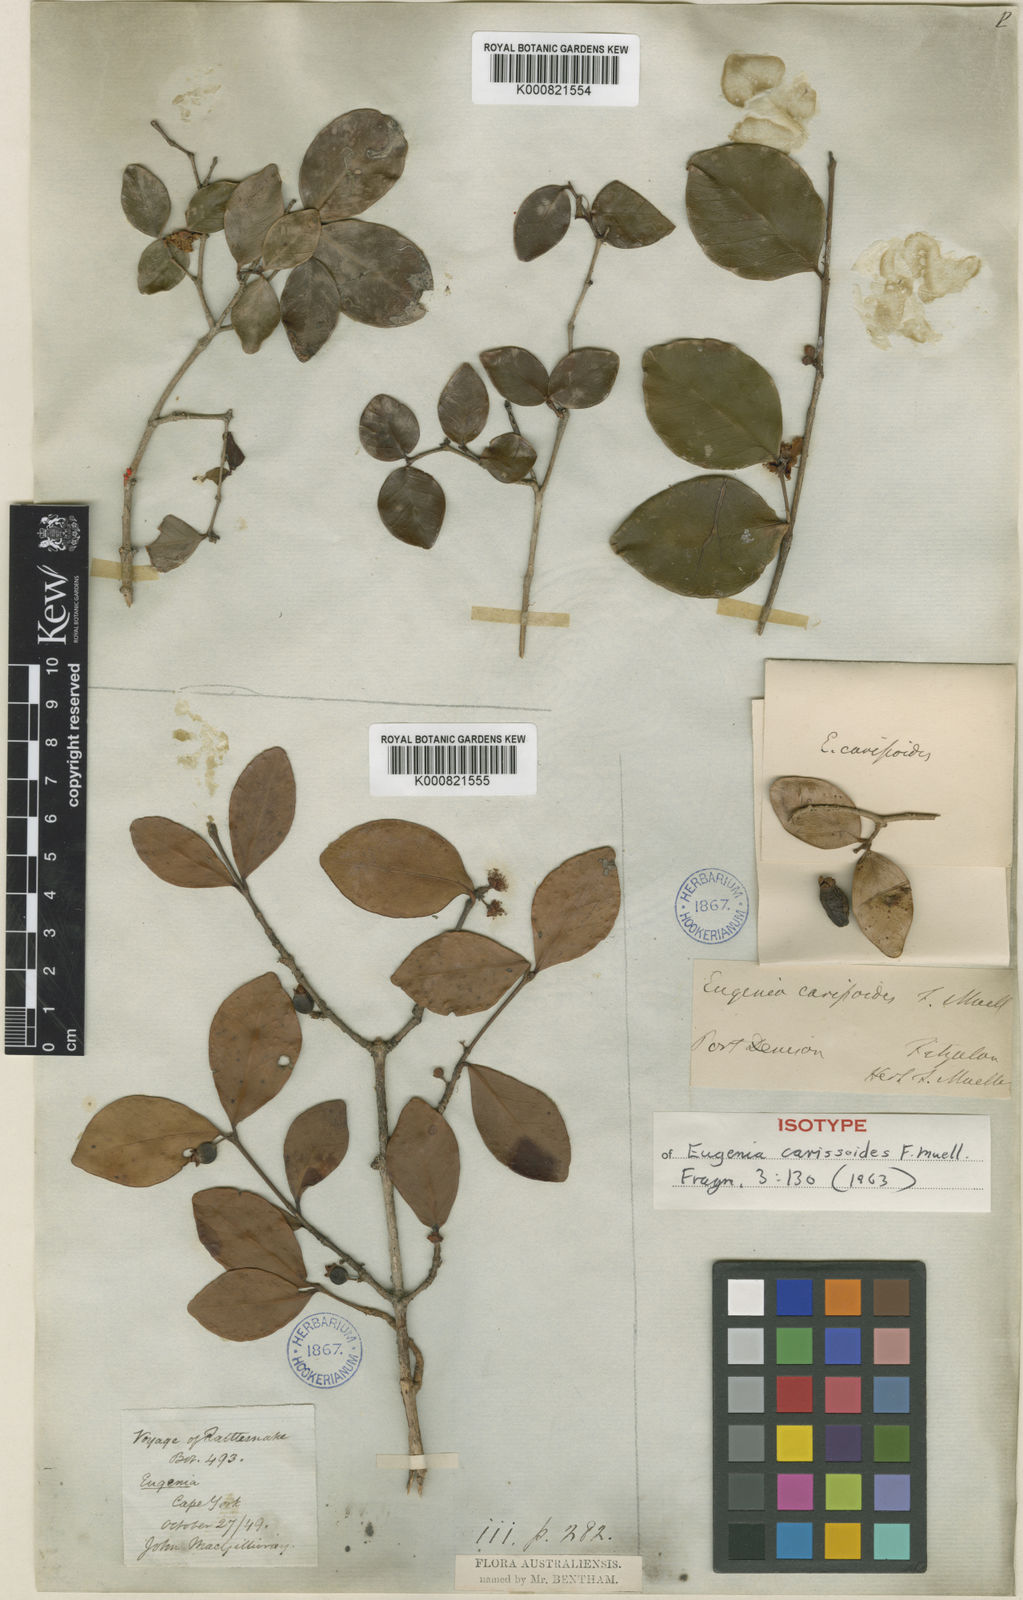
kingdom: Plantae
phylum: Tracheophyta
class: Magnoliopsida
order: Myrtales
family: Myrtaceae
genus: Eugenia
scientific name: Eugenia reinwardtiana
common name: Cedar bay-cherry
